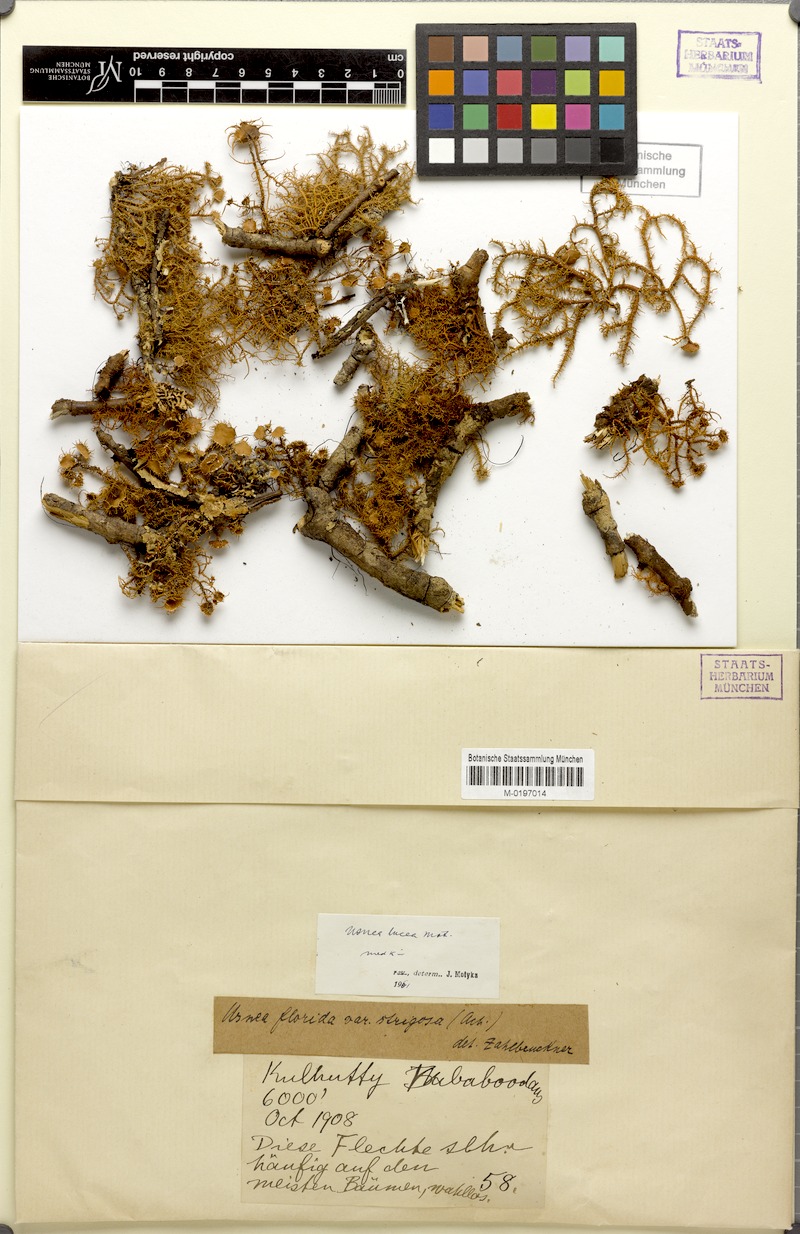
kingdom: Fungi
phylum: Ascomycota
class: Lecanoromycetes
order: Lecanorales
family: Parmeliaceae
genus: Usnea
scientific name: Usnea lutea
